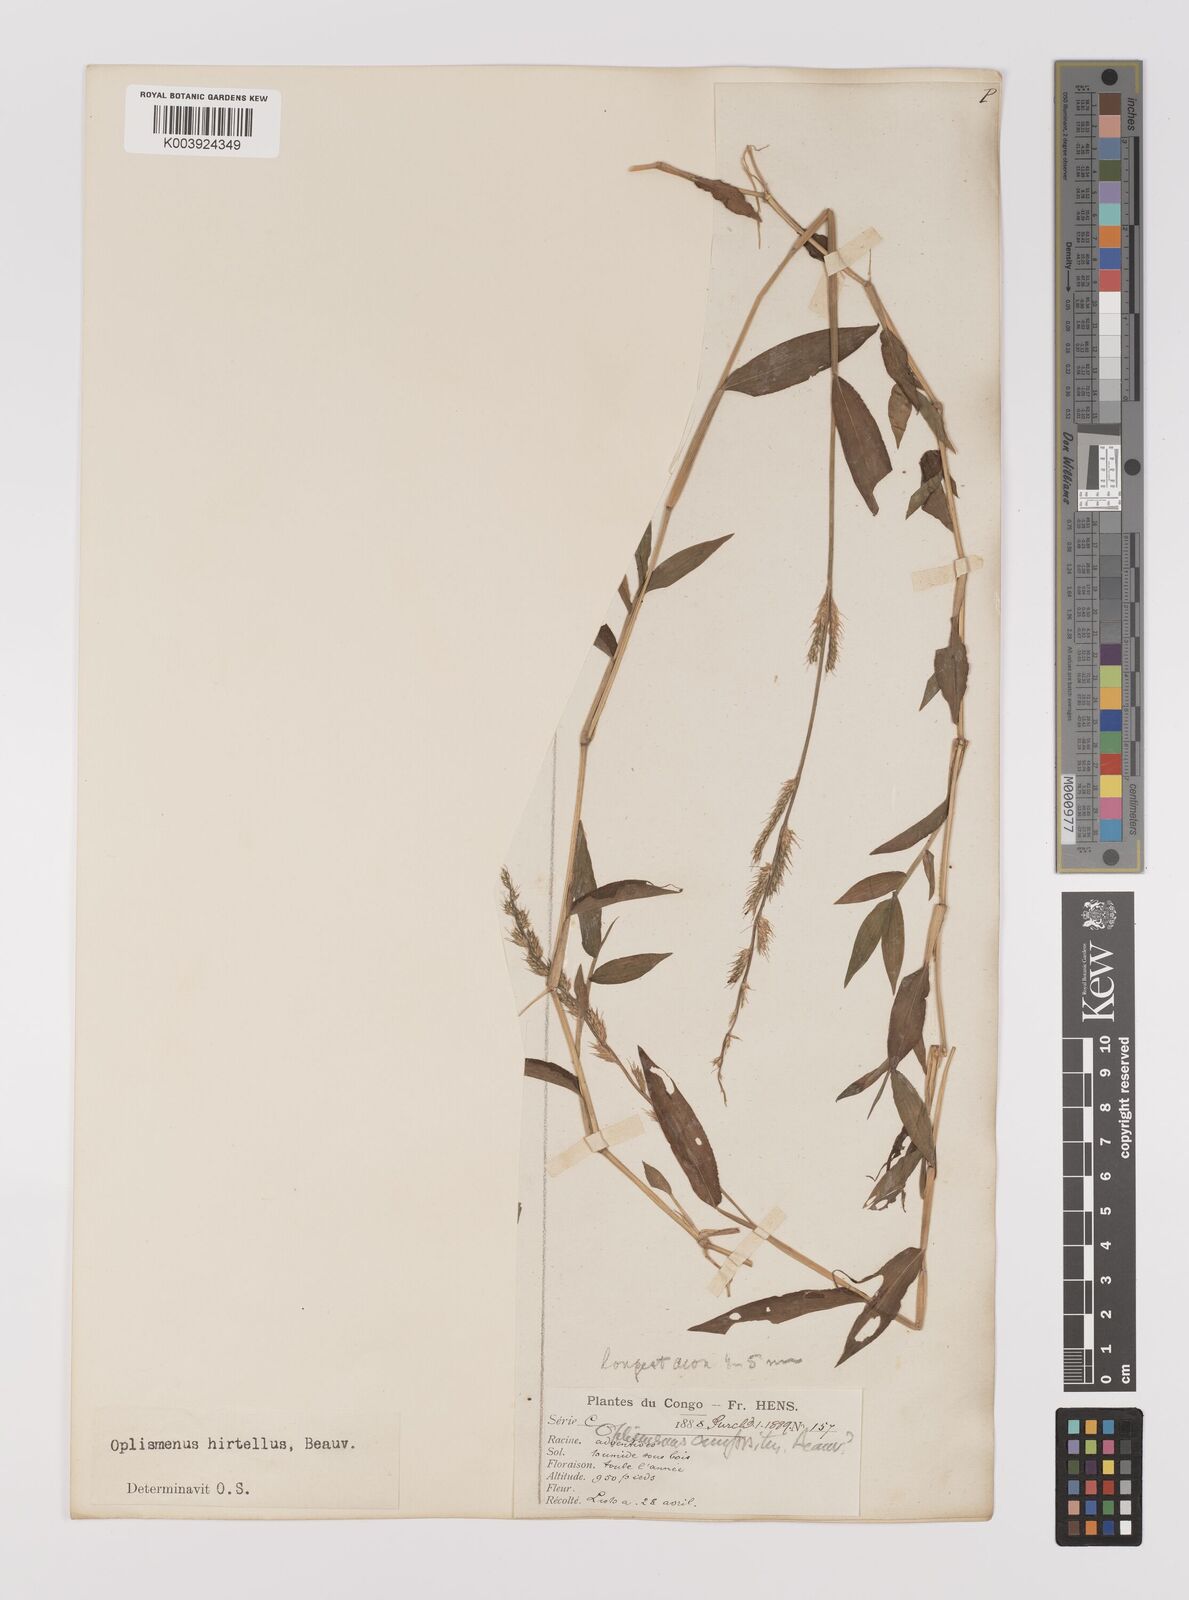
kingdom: Plantae
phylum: Tracheophyta
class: Liliopsida
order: Poales
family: Poaceae
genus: Oplismenus
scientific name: Oplismenus hirtellus
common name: Basketgrass
